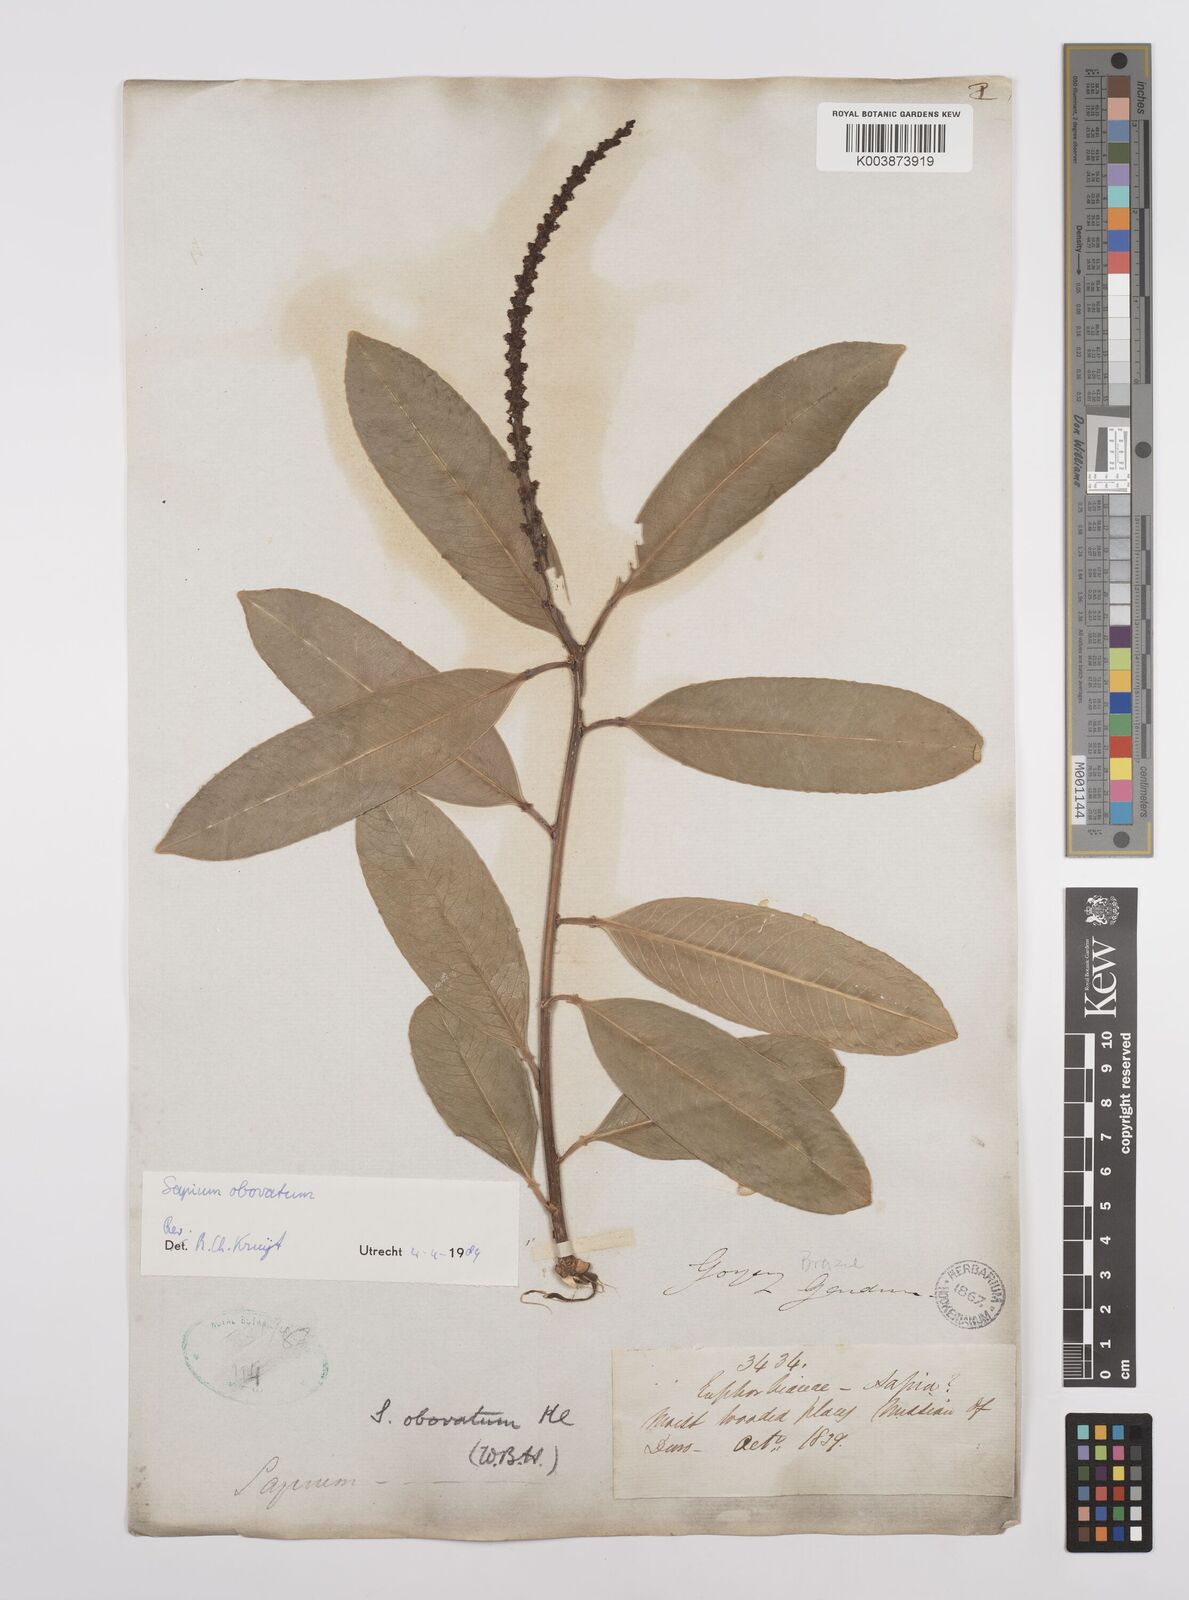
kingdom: Plantae
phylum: Tracheophyta
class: Magnoliopsida
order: Malpighiales
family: Euphorbiaceae
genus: Sapium
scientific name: Sapium obovatum
